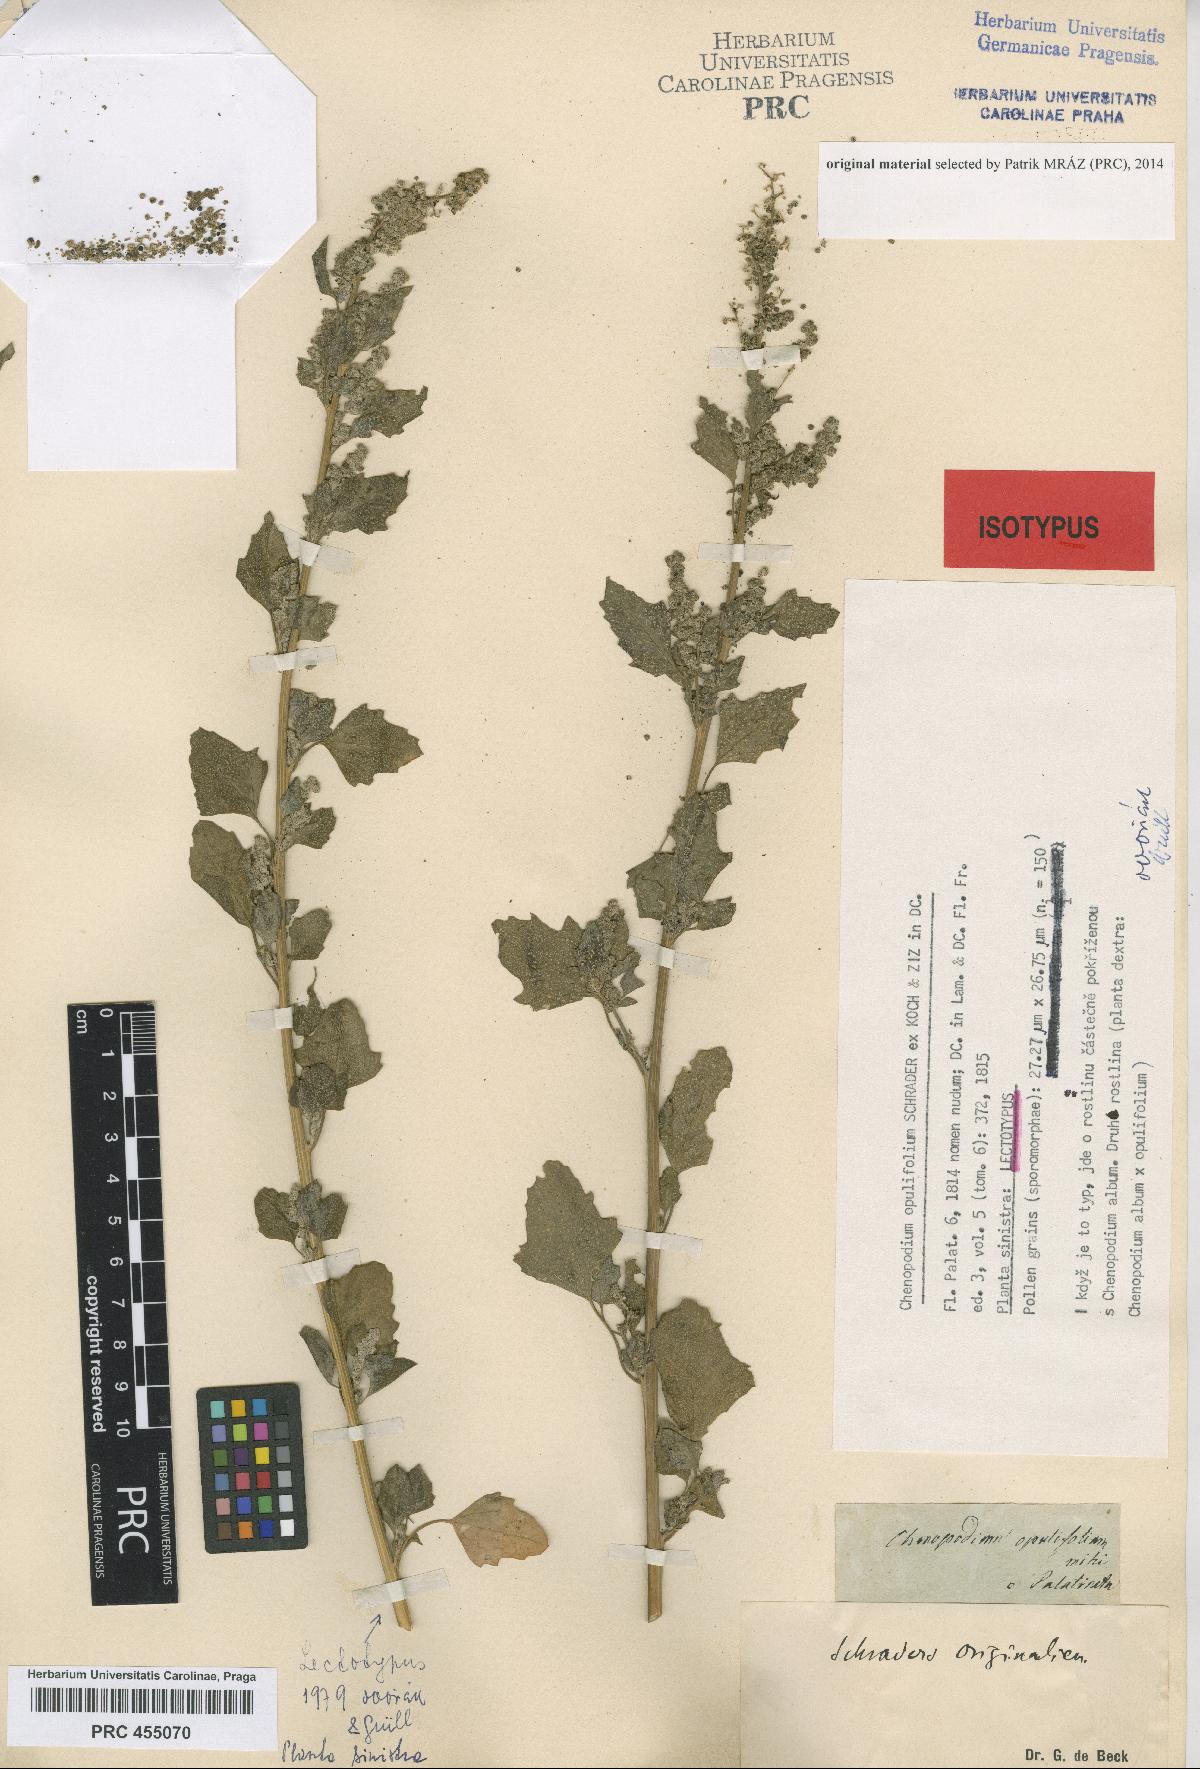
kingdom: Plantae
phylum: Tracheophyta
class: Magnoliopsida
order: Caryophyllales
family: Amaranthaceae
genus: Chenopodium
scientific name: Chenopodium opulifolium
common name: Grey goosefoot
